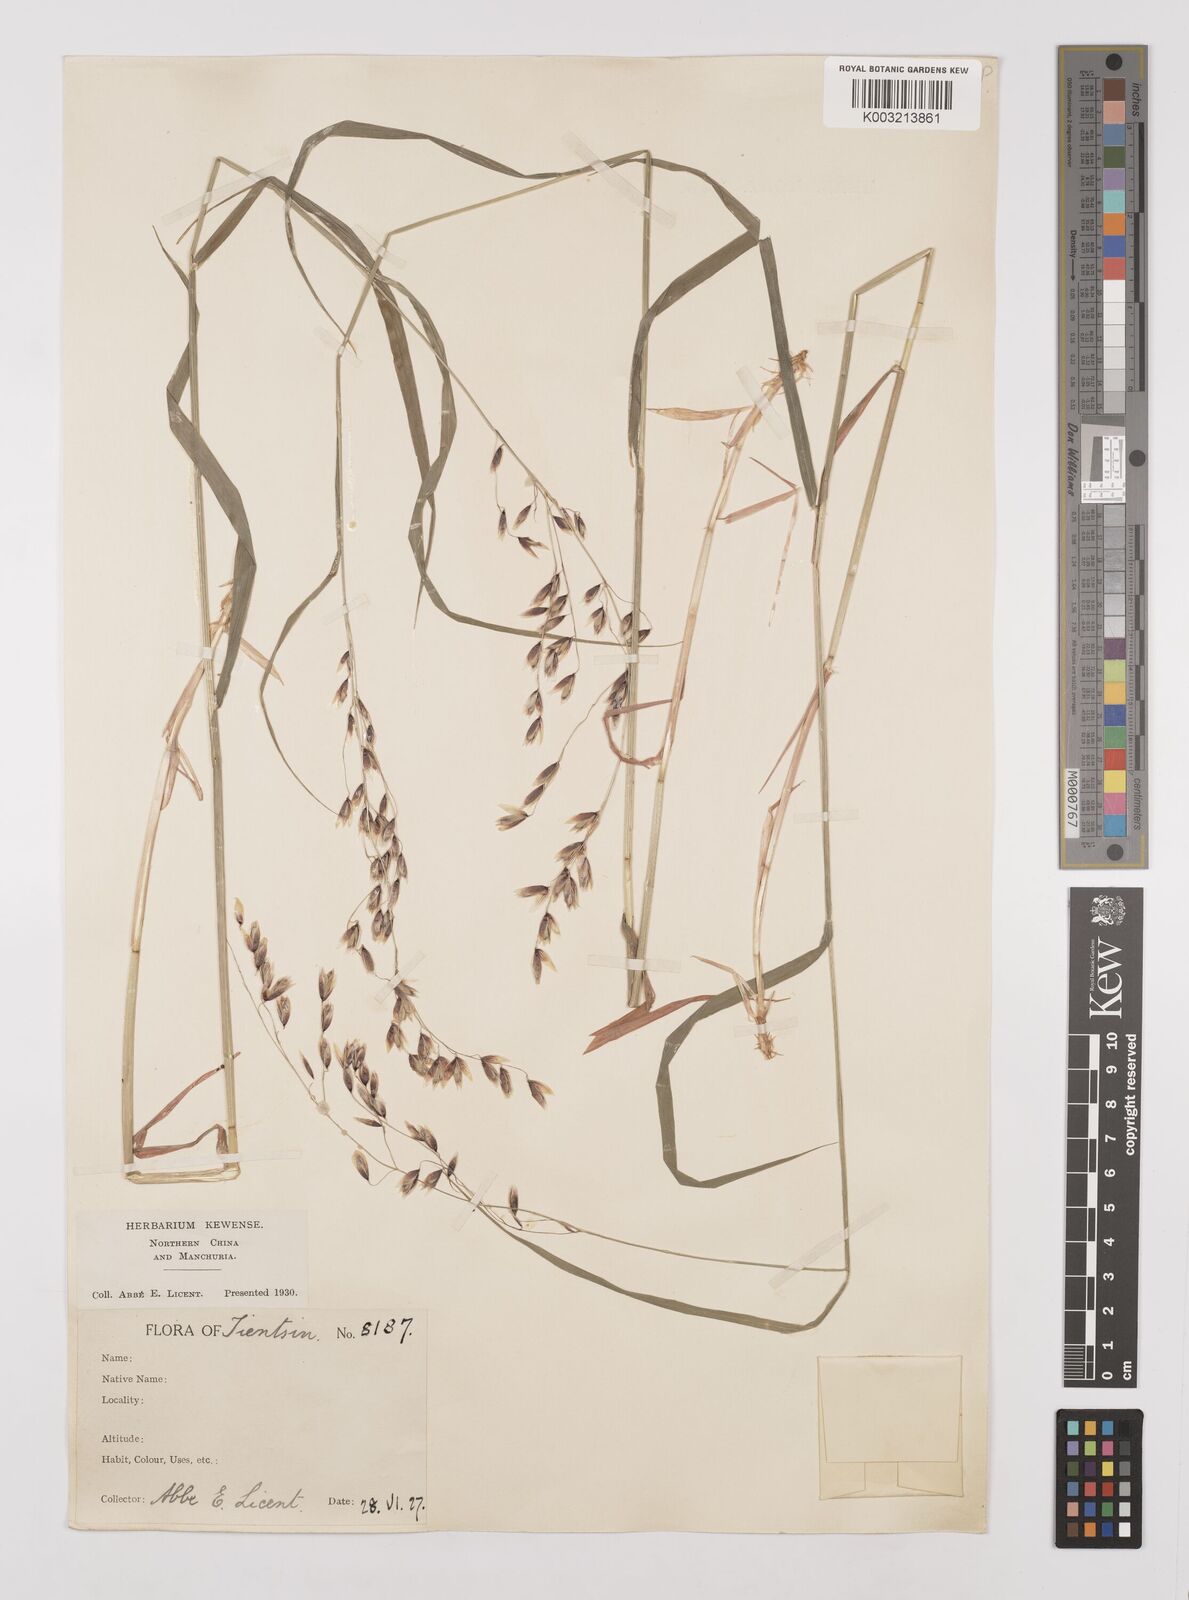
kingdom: Plantae
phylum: Tracheophyta
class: Liliopsida
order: Poales
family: Poaceae
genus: Melica
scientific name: Melica turczaninowiana
